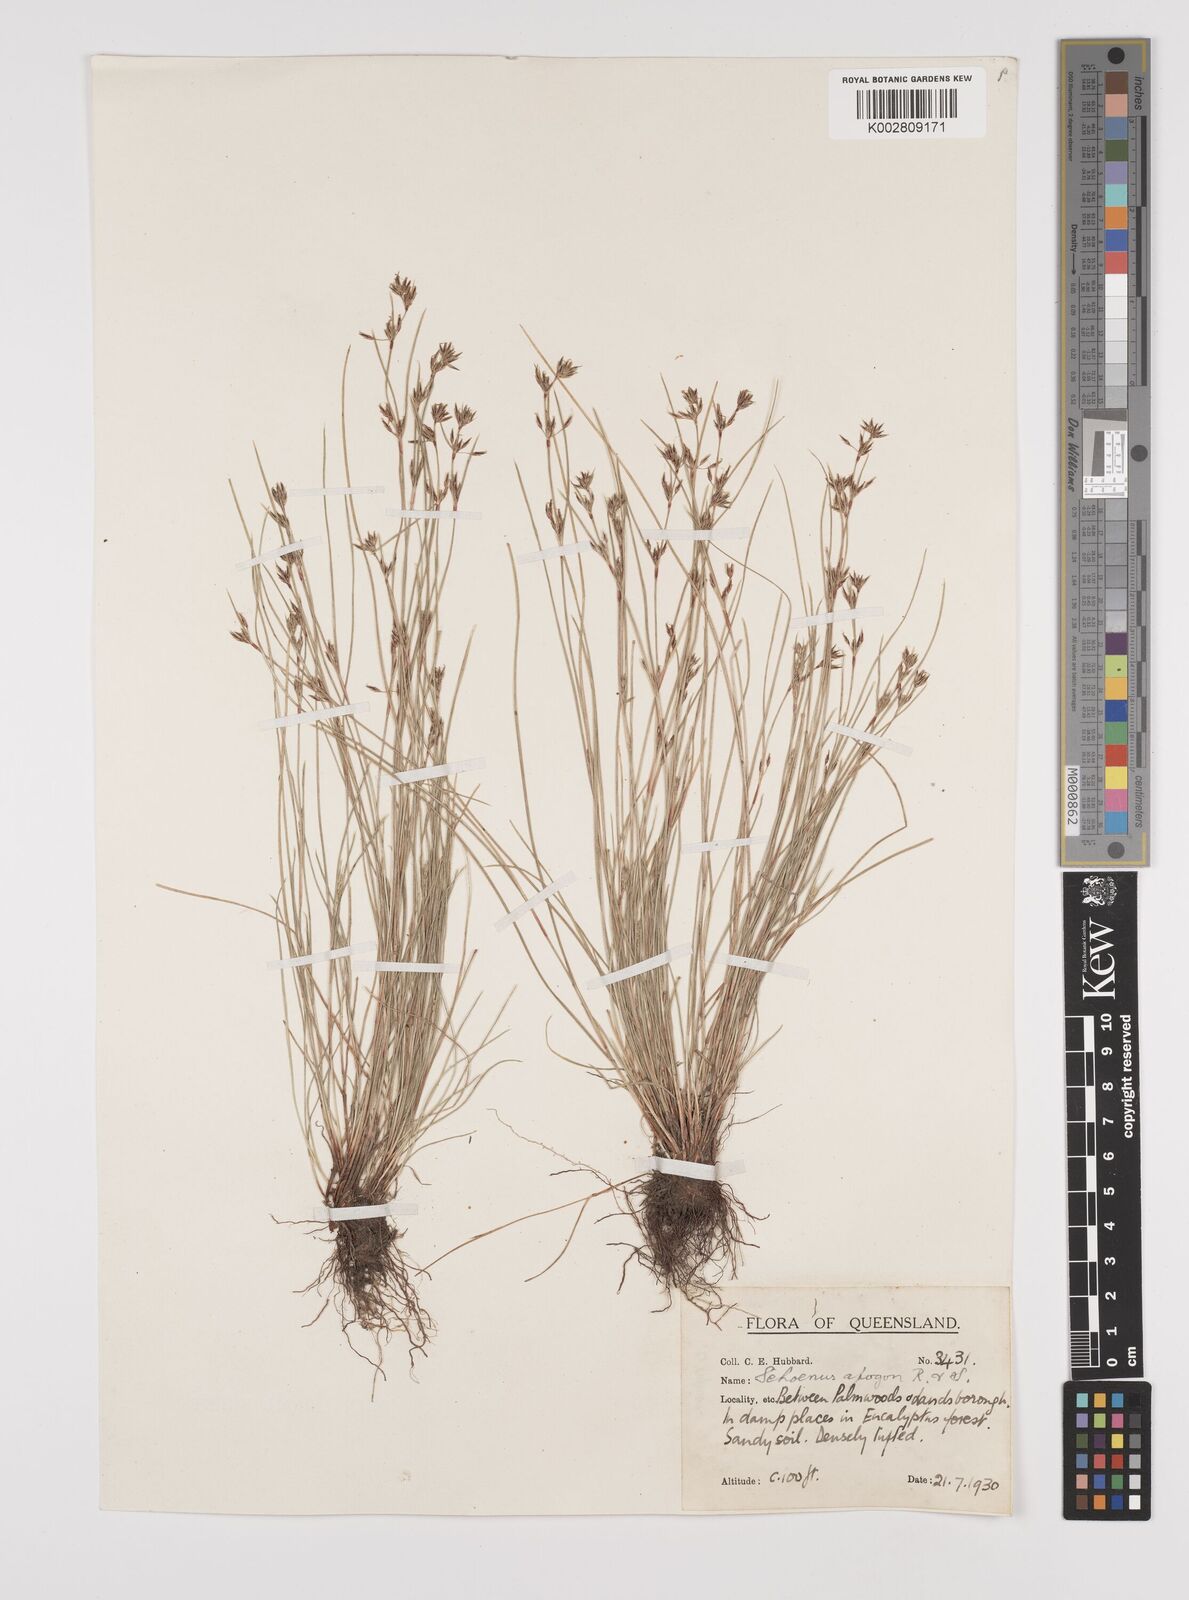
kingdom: Plantae
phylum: Tracheophyta
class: Liliopsida
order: Poales
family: Cyperaceae
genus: Schoenus
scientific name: Schoenus apogon
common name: Smooth bogrush
